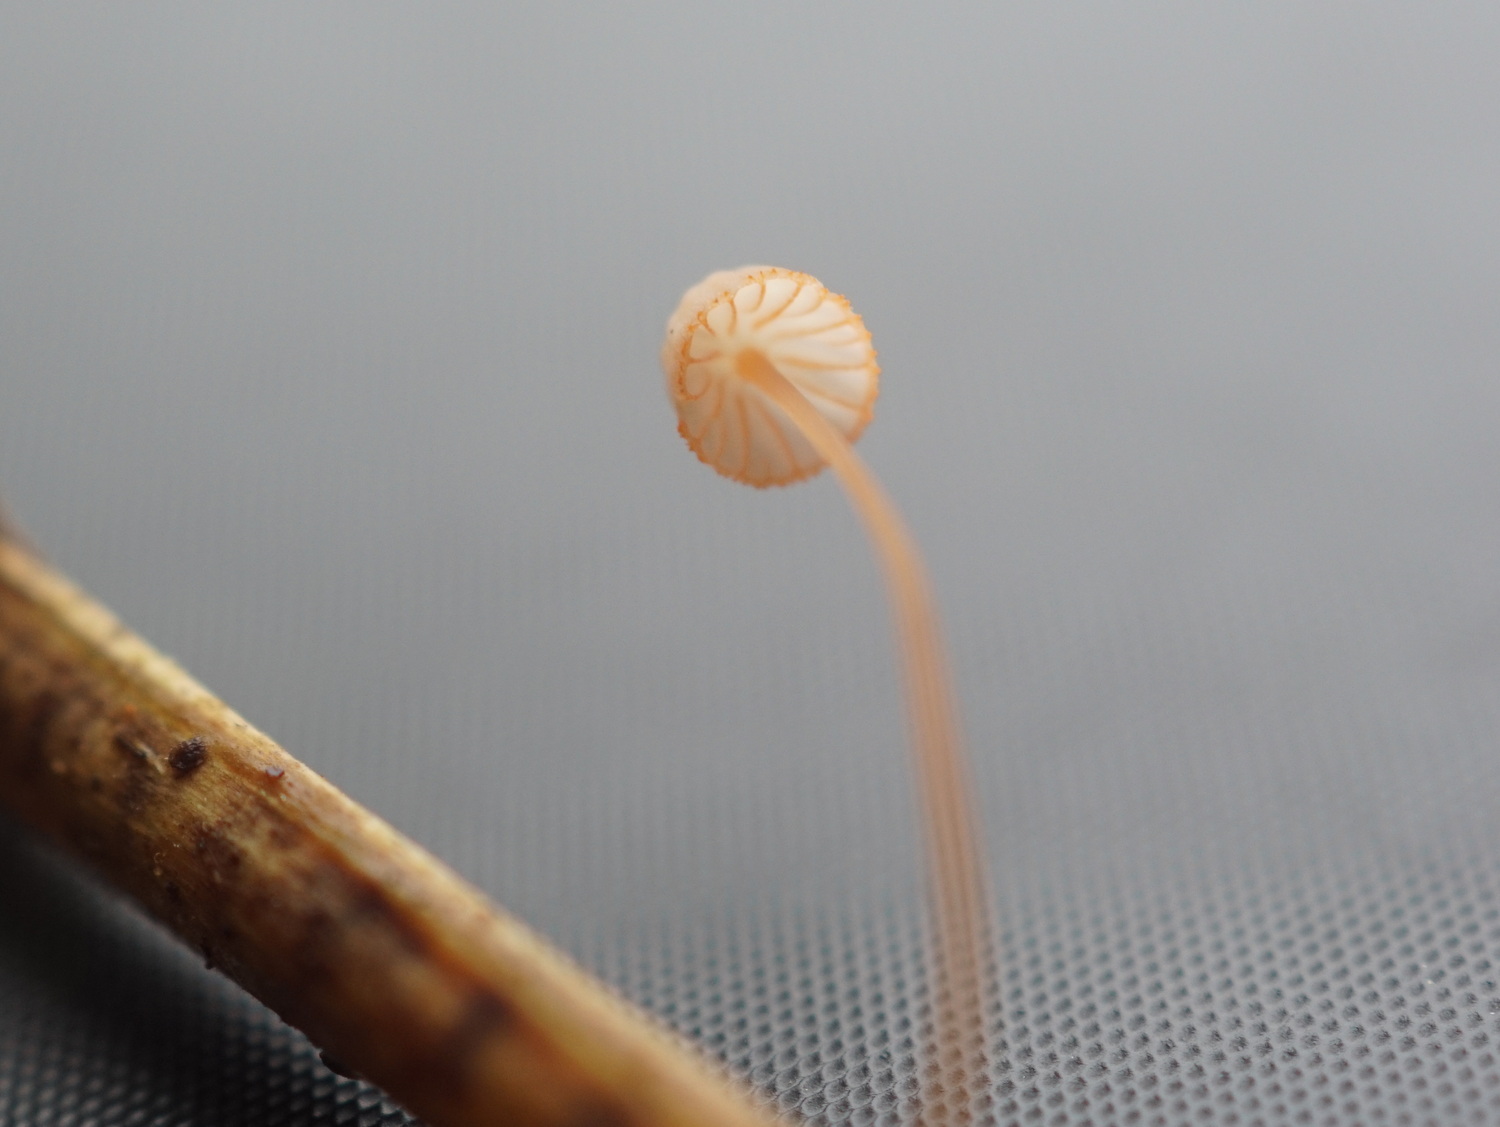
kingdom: Fungi
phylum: Basidiomycota
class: Agaricomycetes
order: Agaricales
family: Mycenaceae
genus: Mycena
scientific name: Mycena pterigena
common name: bregne-huesvamp
